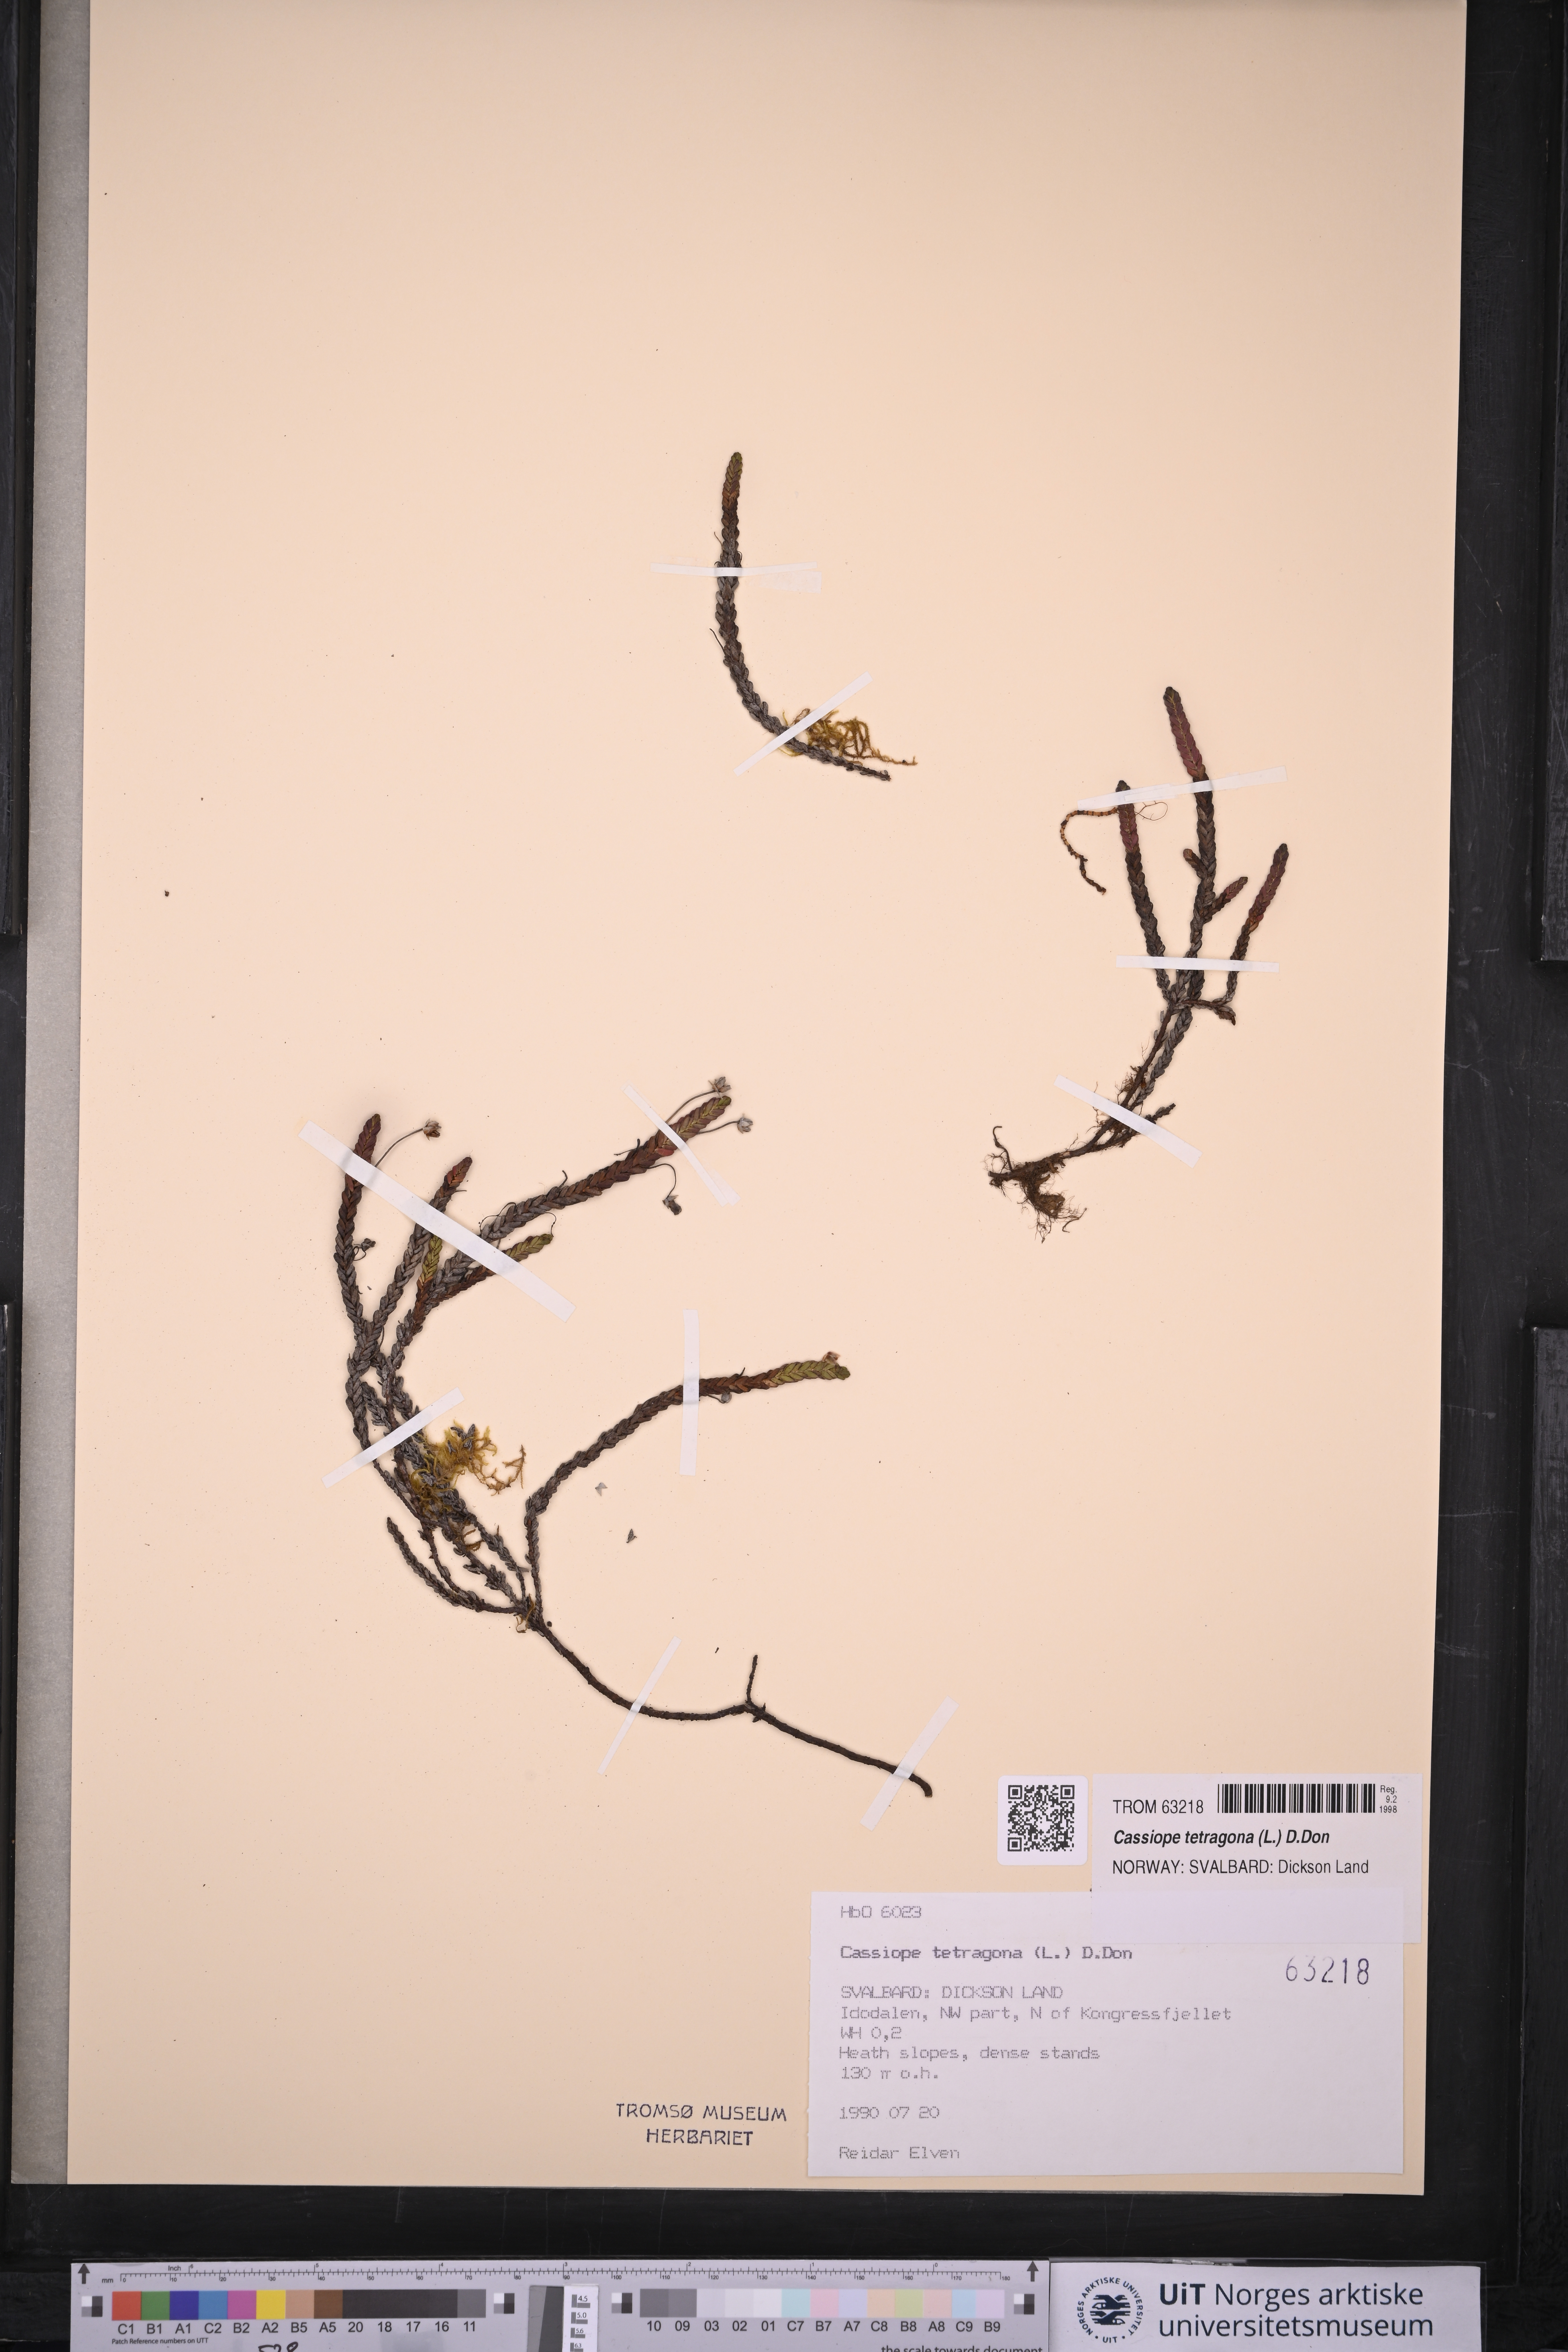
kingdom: Plantae
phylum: Tracheophyta
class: Magnoliopsida
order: Ericales
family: Ericaceae
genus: Cassiope
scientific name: Cassiope tetragona
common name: Arctic bell heather
